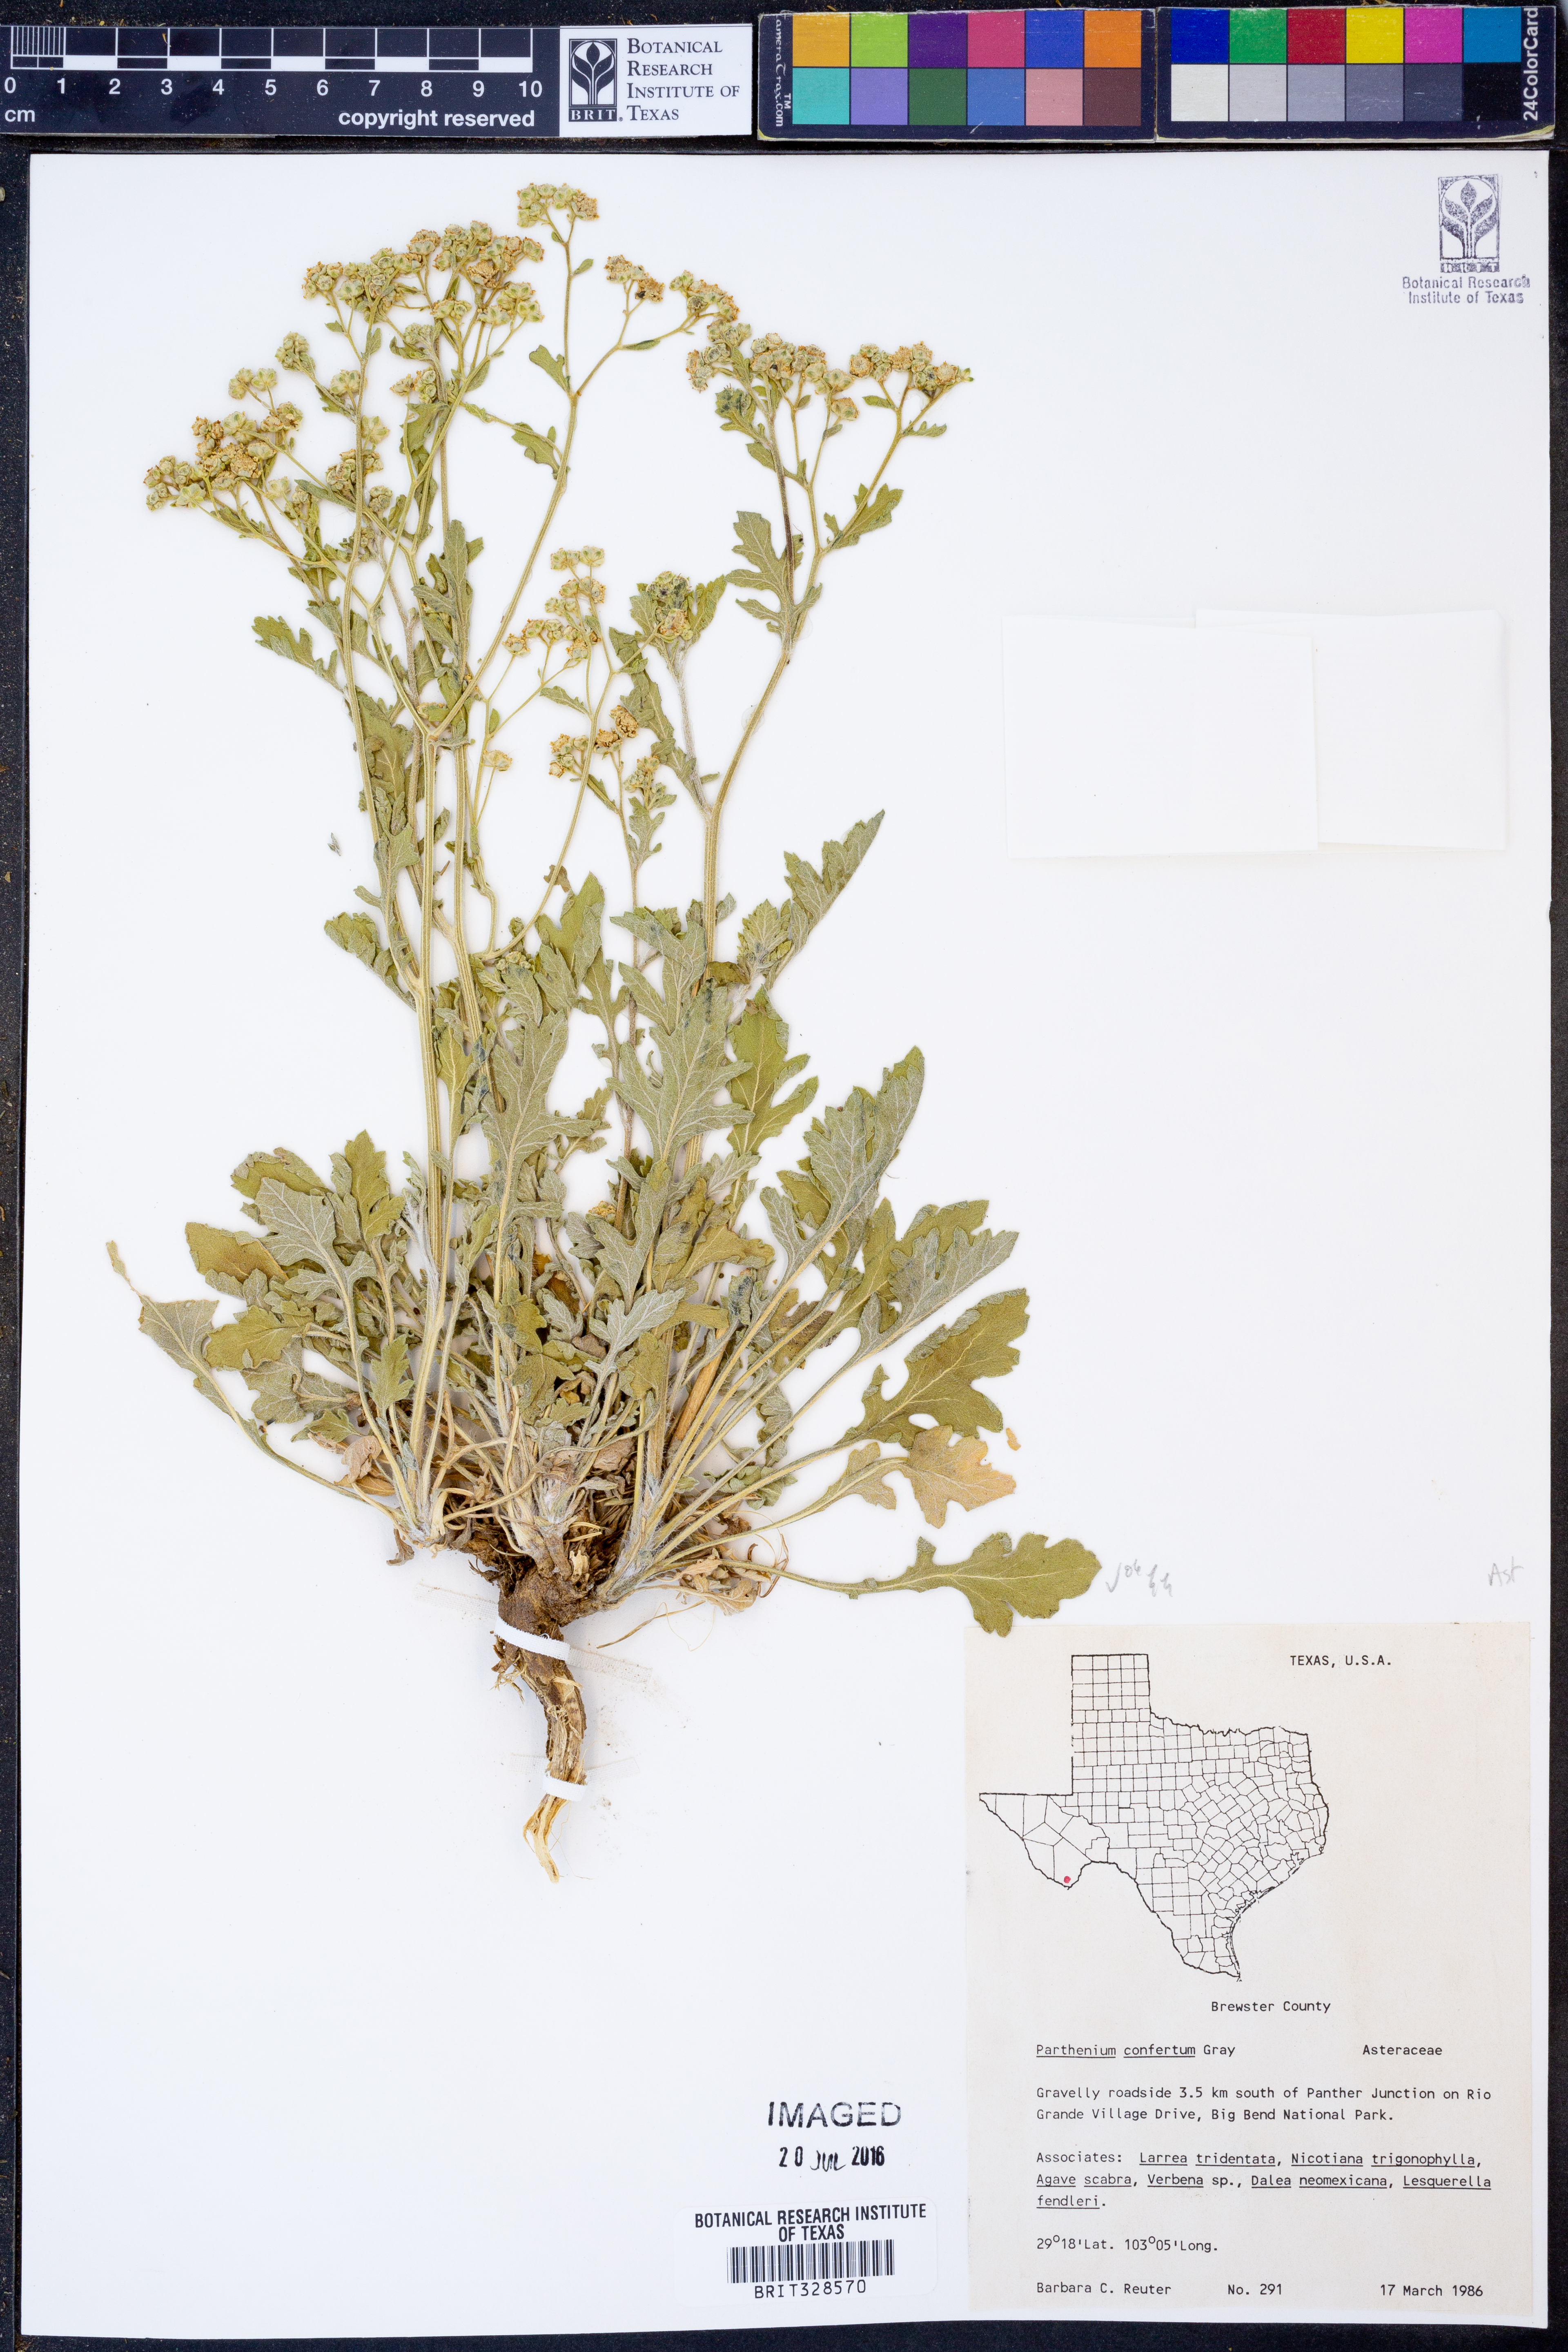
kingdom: Plantae
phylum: Tracheophyta
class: Magnoliopsida
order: Asterales
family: Asteraceae
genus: Parthenium
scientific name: Parthenium confertum
